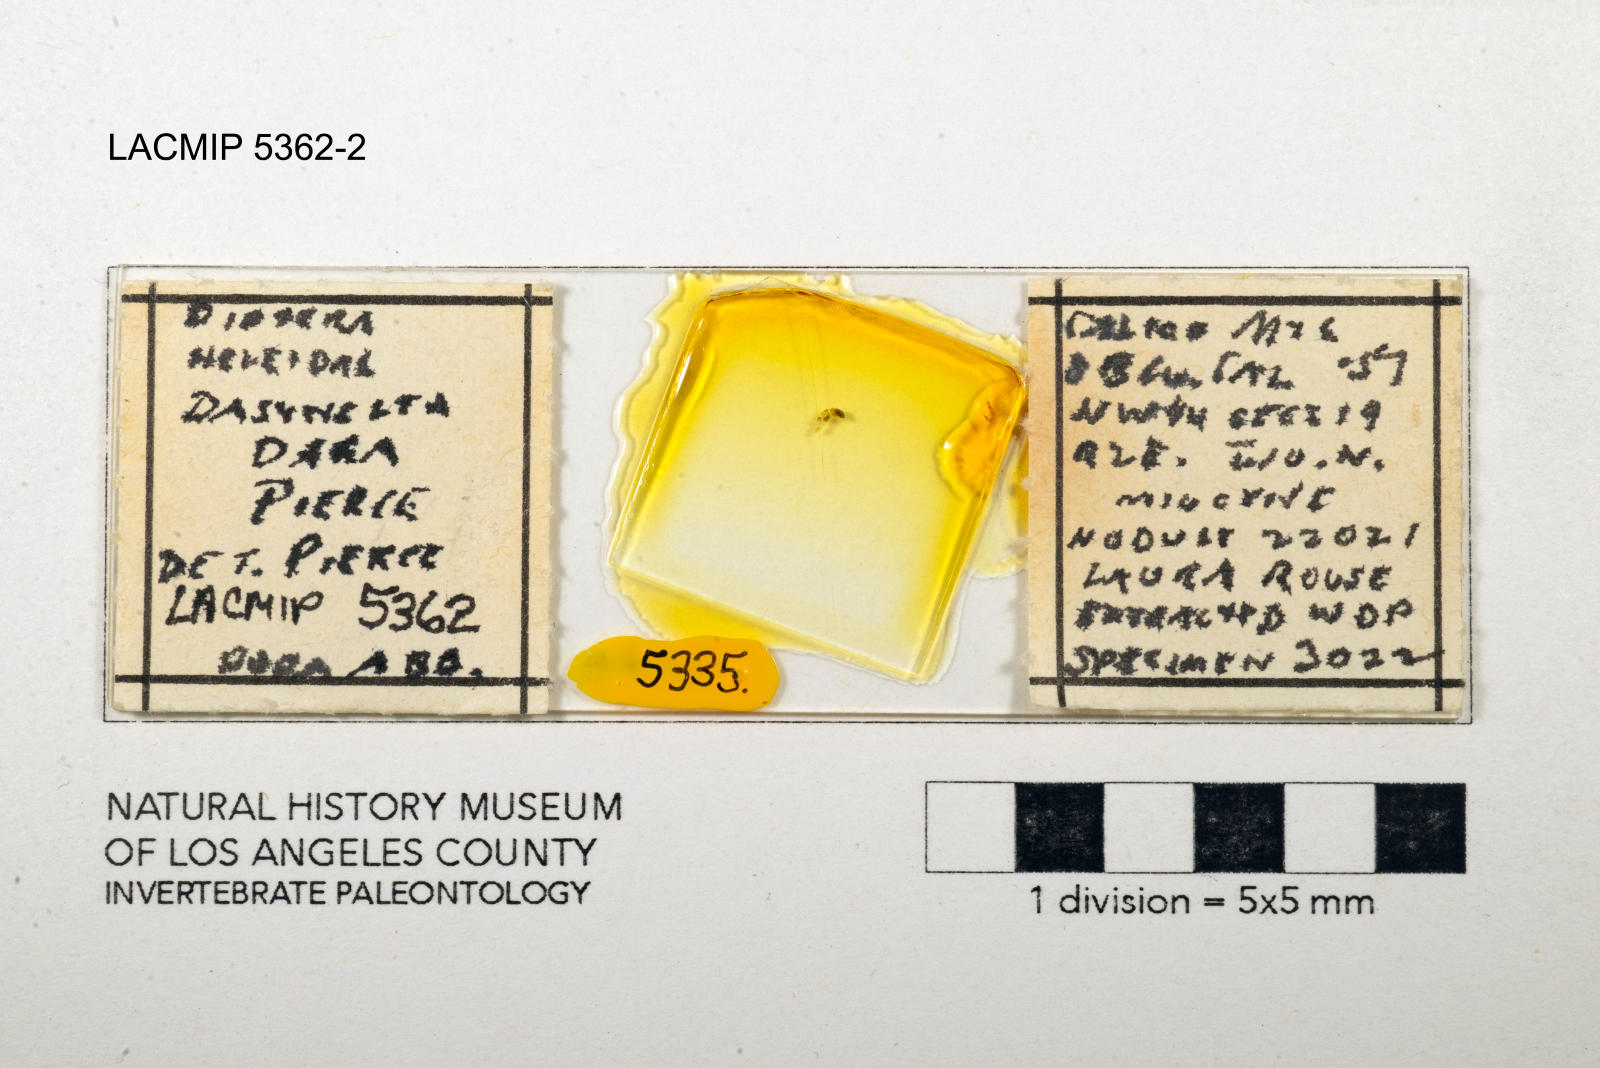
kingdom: Animalia
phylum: Arthropoda
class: Insecta
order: Diptera
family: Ceratopogonidae
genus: Dasyhelea
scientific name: Dasyhelea dara
